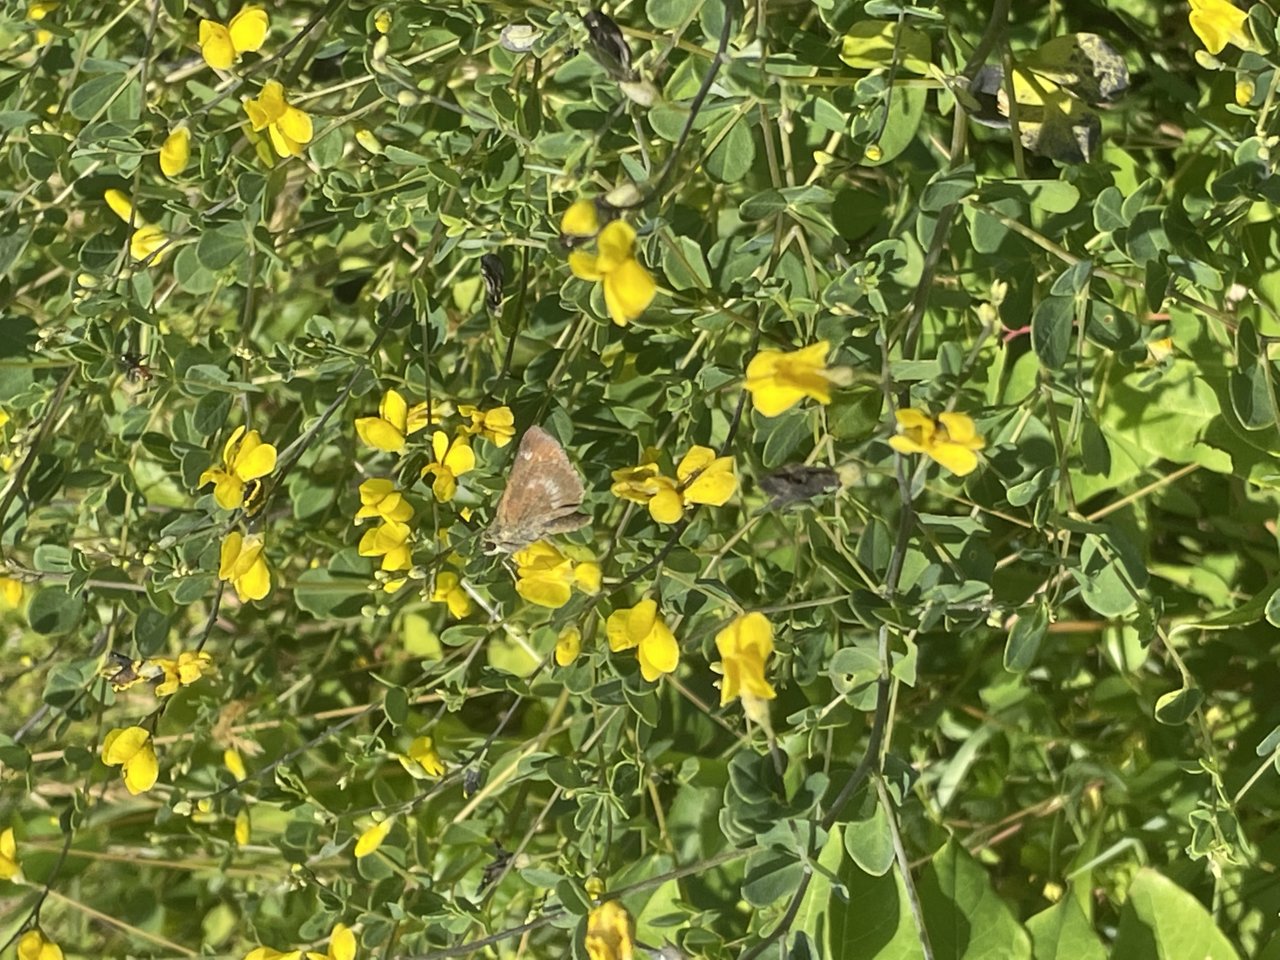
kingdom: Animalia
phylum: Arthropoda
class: Insecta
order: Lepidoptera
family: Hesperiidae
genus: Polites
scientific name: Polites egeremet
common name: Northern Broken-Dash
